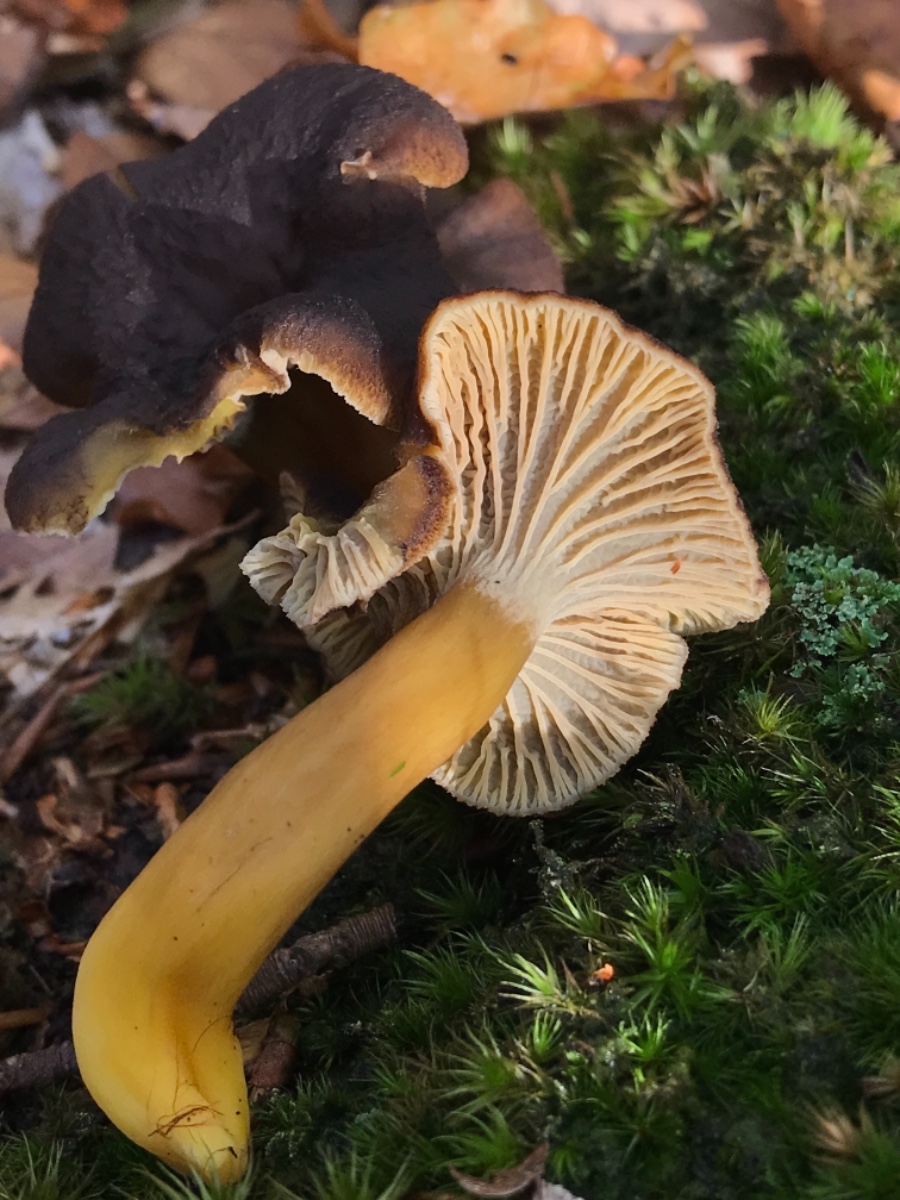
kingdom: Fungi
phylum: Basidiomycota
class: Agaricomycetes
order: Cantharellales
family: Hydnaceae
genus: Craterellus
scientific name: Craterellus tubaeformis
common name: tragt-kantarel
